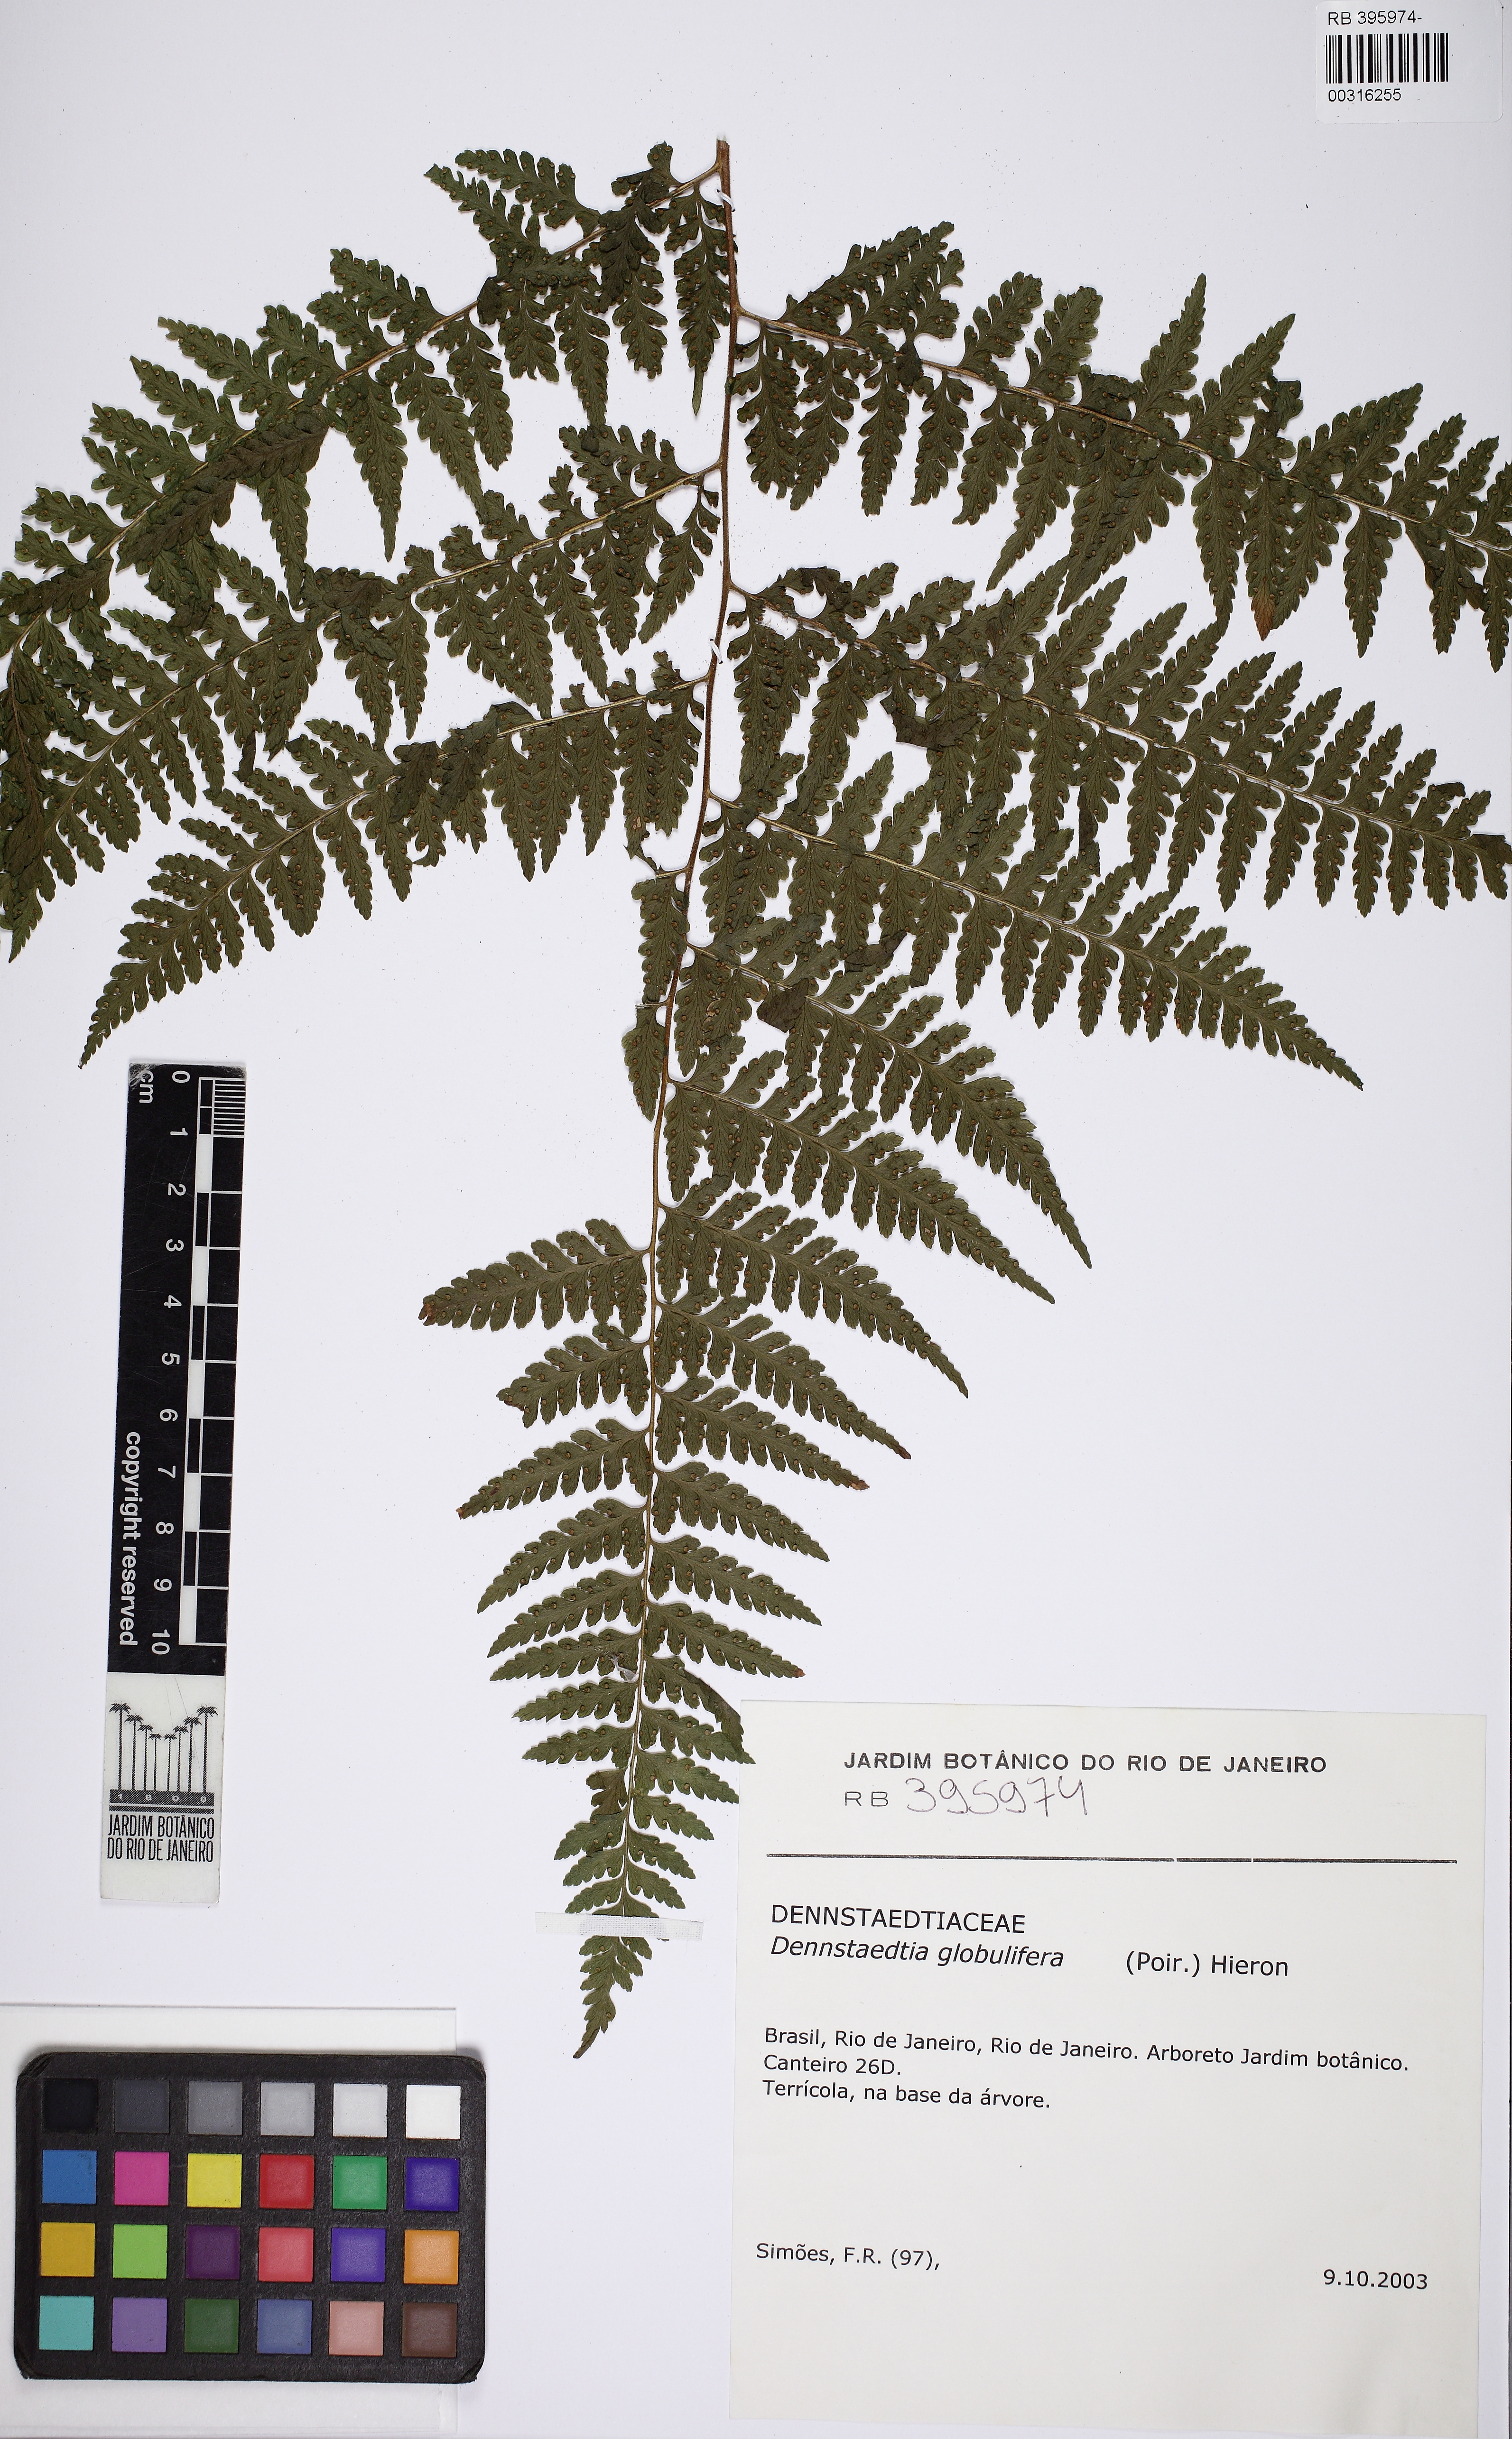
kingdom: Plantae
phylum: Tracheophyta
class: Polypodiopsida
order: Polypodiales
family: Dennstaedtiaceae
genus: Microlepia
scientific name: Microlepia speluncae
